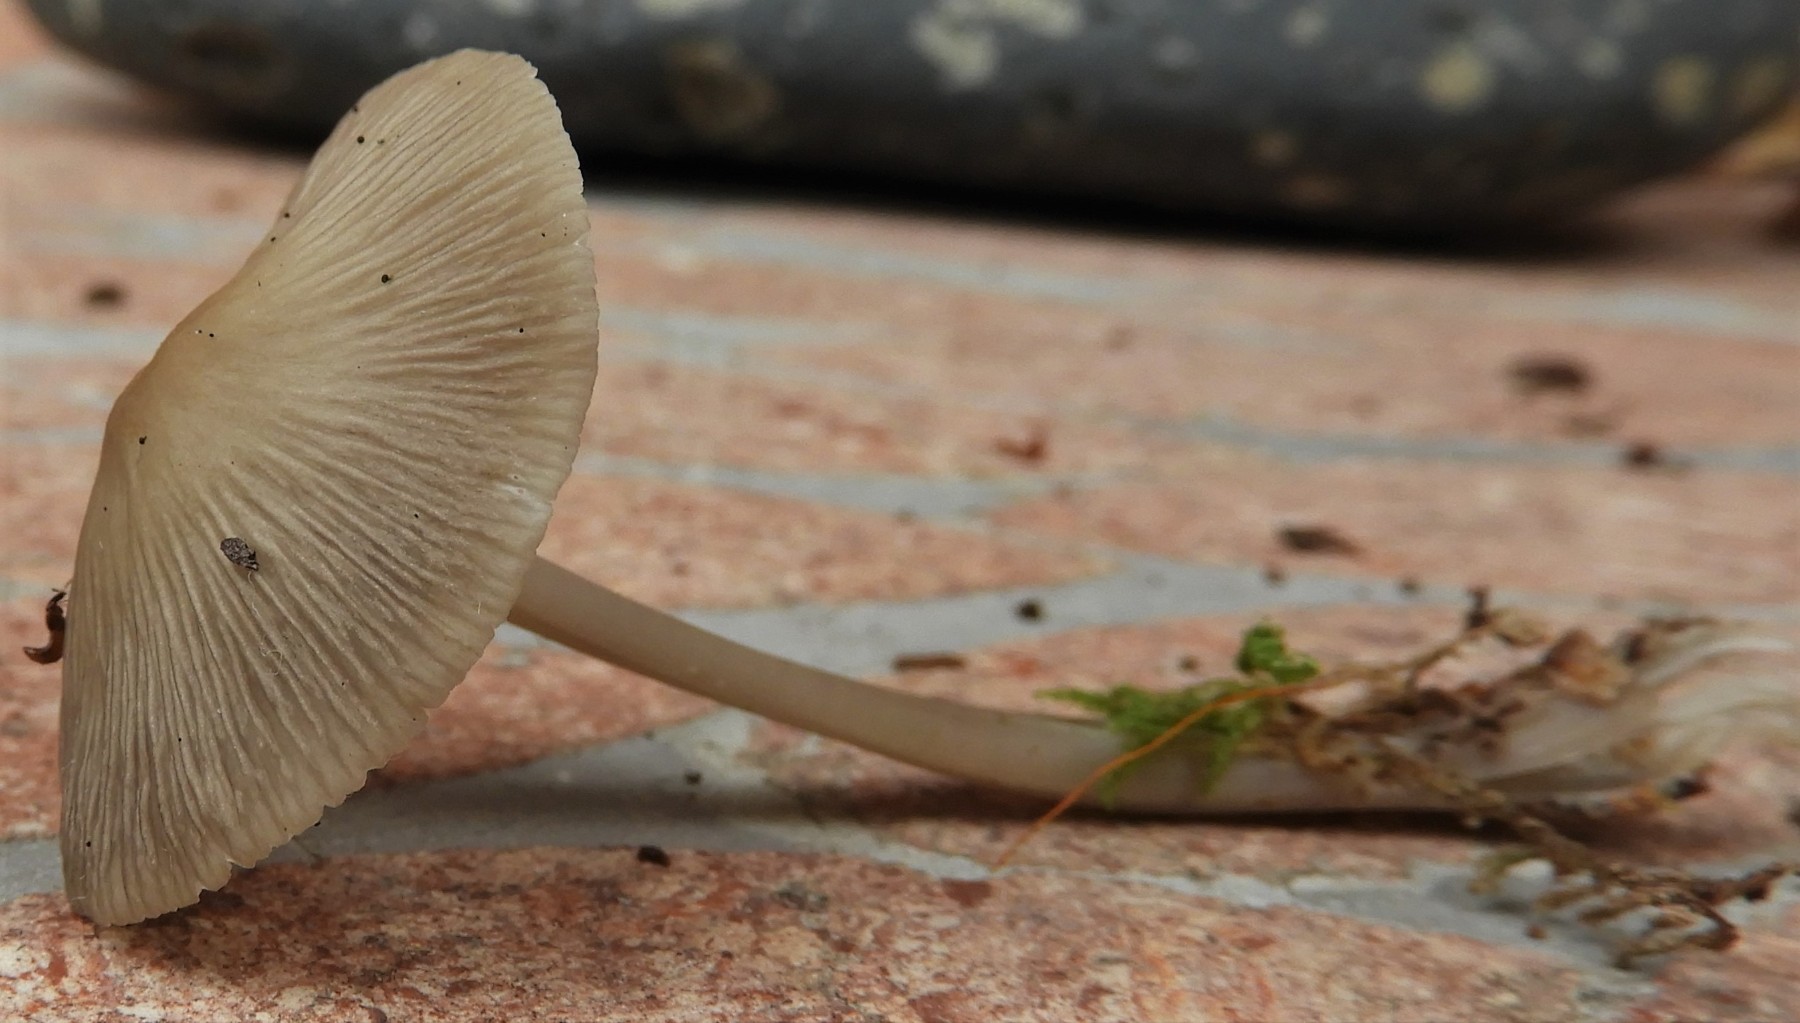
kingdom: Fungi
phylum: Basidiomycota
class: Agaricomycetes
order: Agaricales
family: Mycenaceae
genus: Mycena
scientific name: Mycena galericulata
